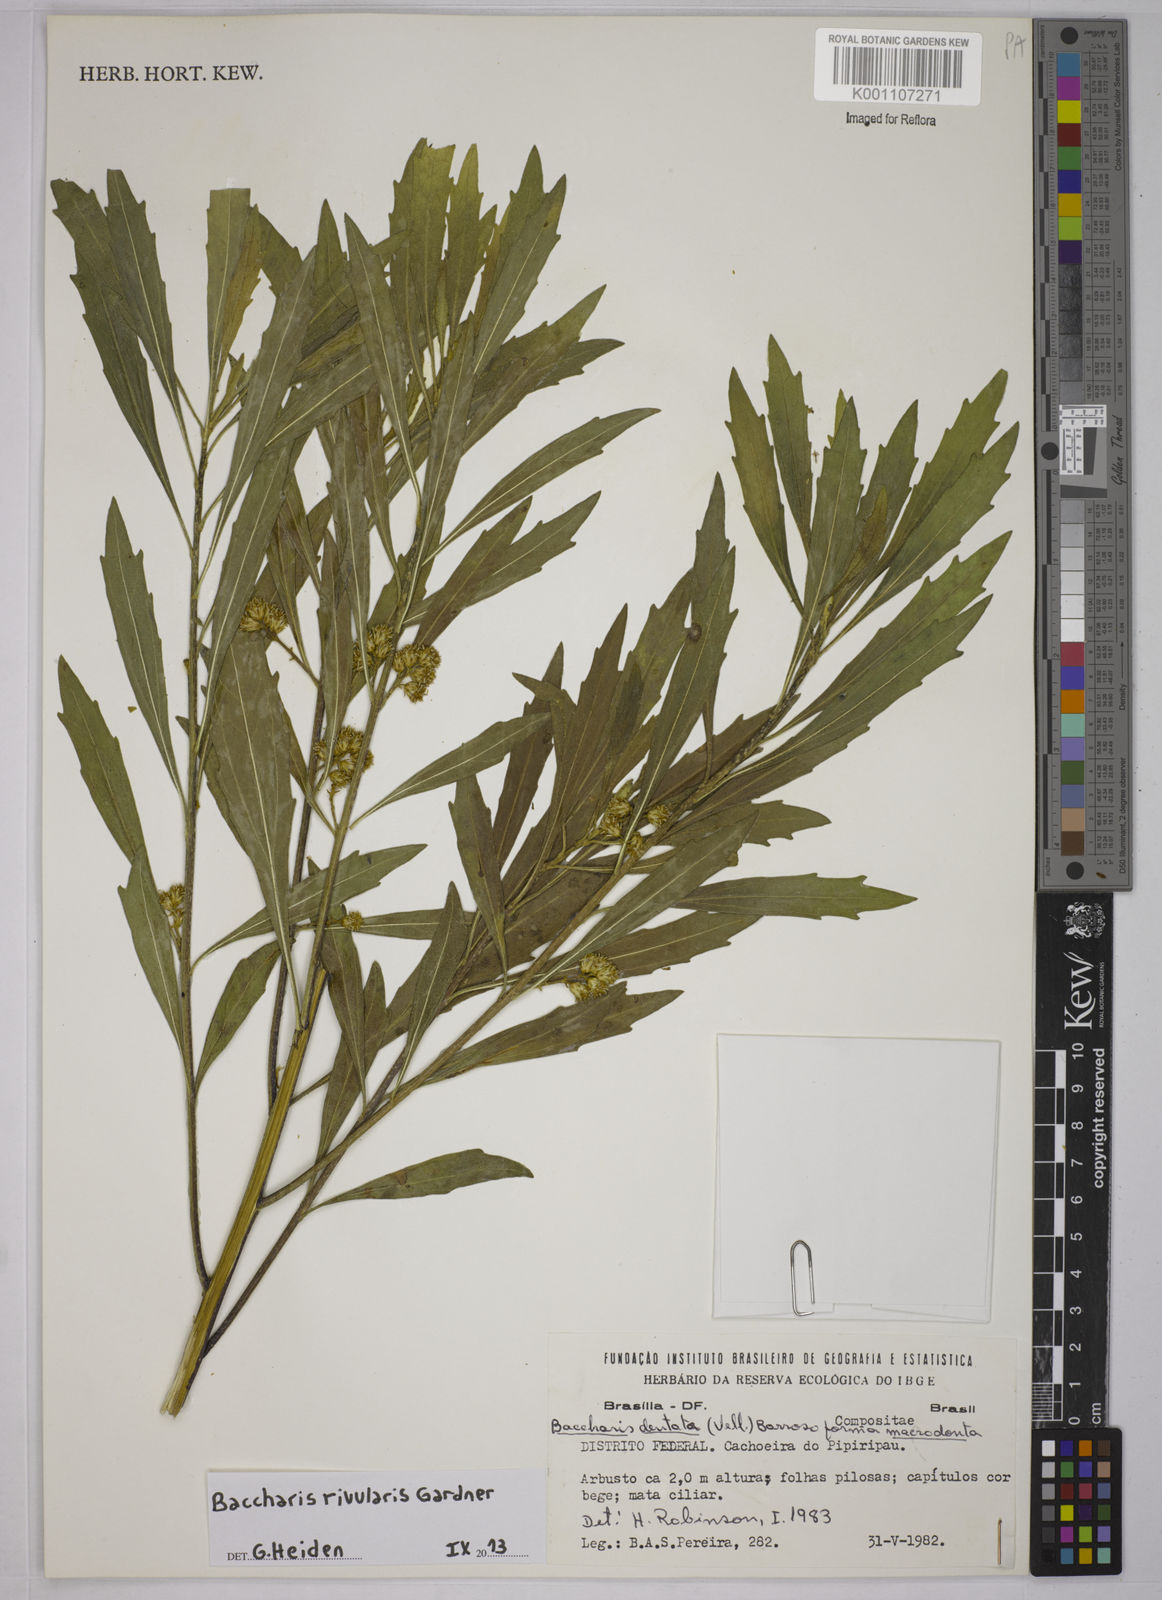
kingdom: Plantae
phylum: Tracheophyta
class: Magnoliopsida
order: Asterales
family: Asteraceae
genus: Baccharis
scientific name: Baccharis rivularis
